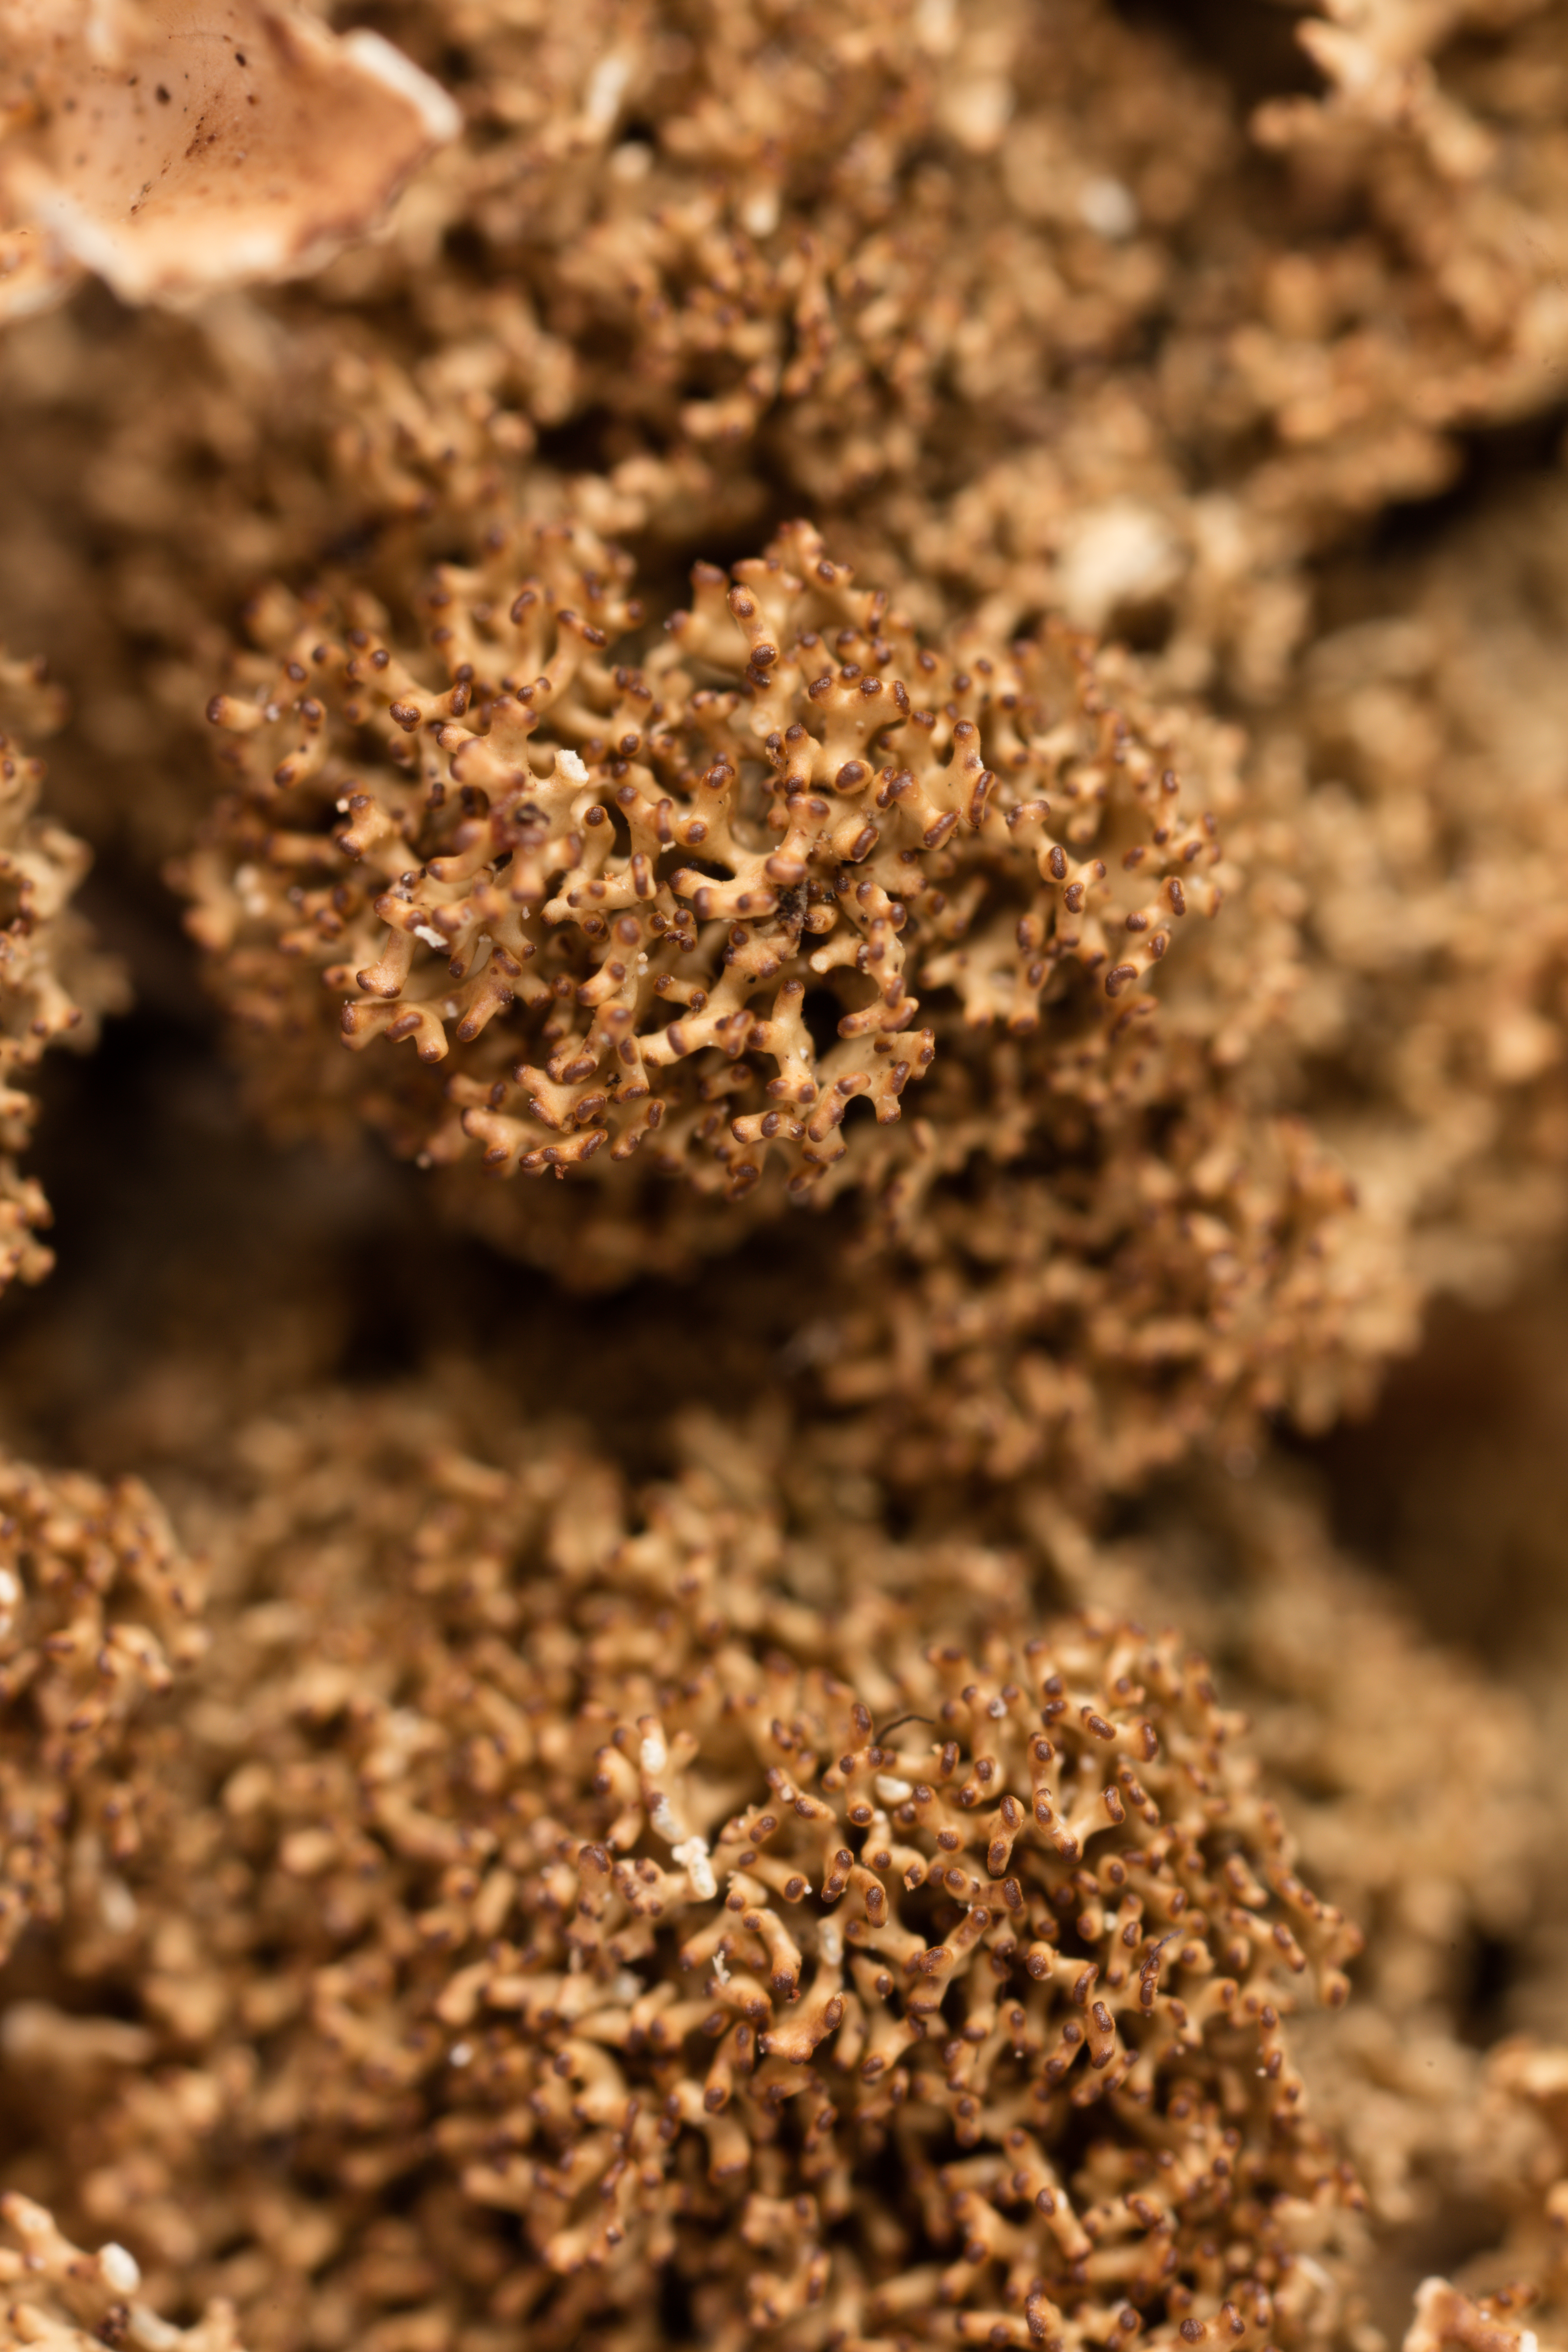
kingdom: Fungi
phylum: Ascomycota
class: Lecanoromycetes
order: Peltigerales
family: Lobariaceae
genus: Pseudocyphellaria
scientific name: Pseudocyphellaria chloroleuca
